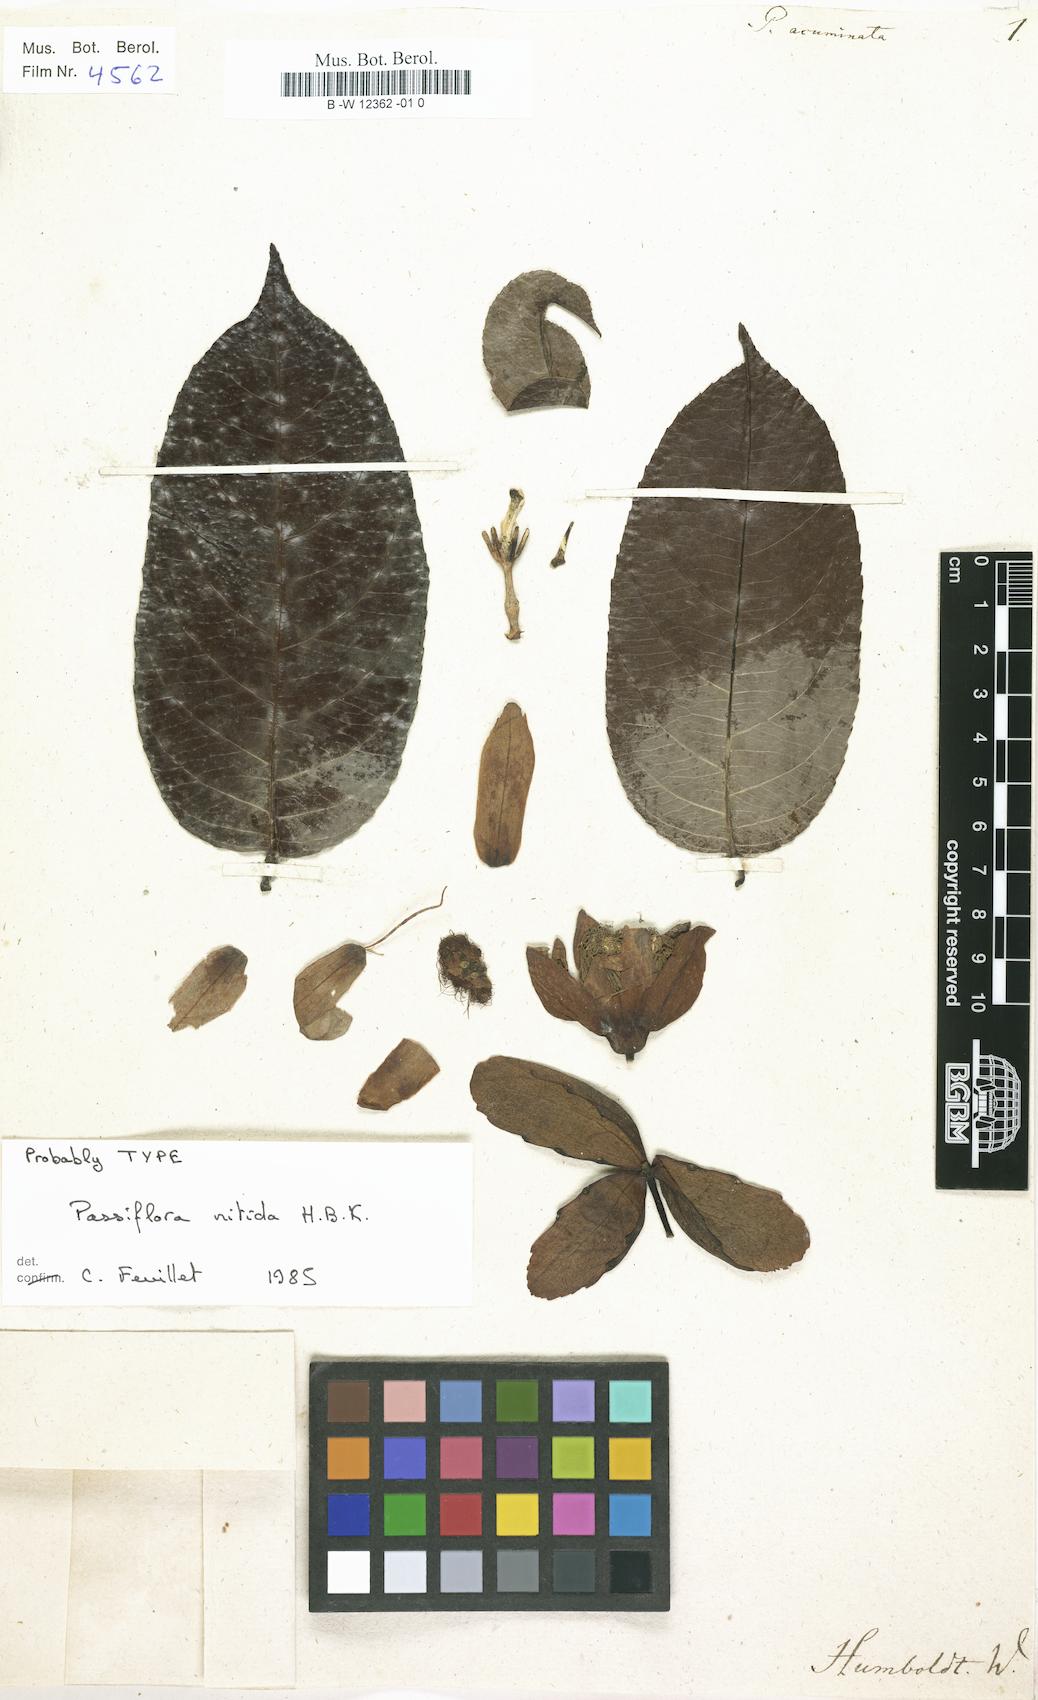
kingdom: Plantae
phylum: Tracheophyta
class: Magnoliopsida
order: Malpighiales
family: Passifloraceae
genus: Passiflora
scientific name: Passiflora acuminata
